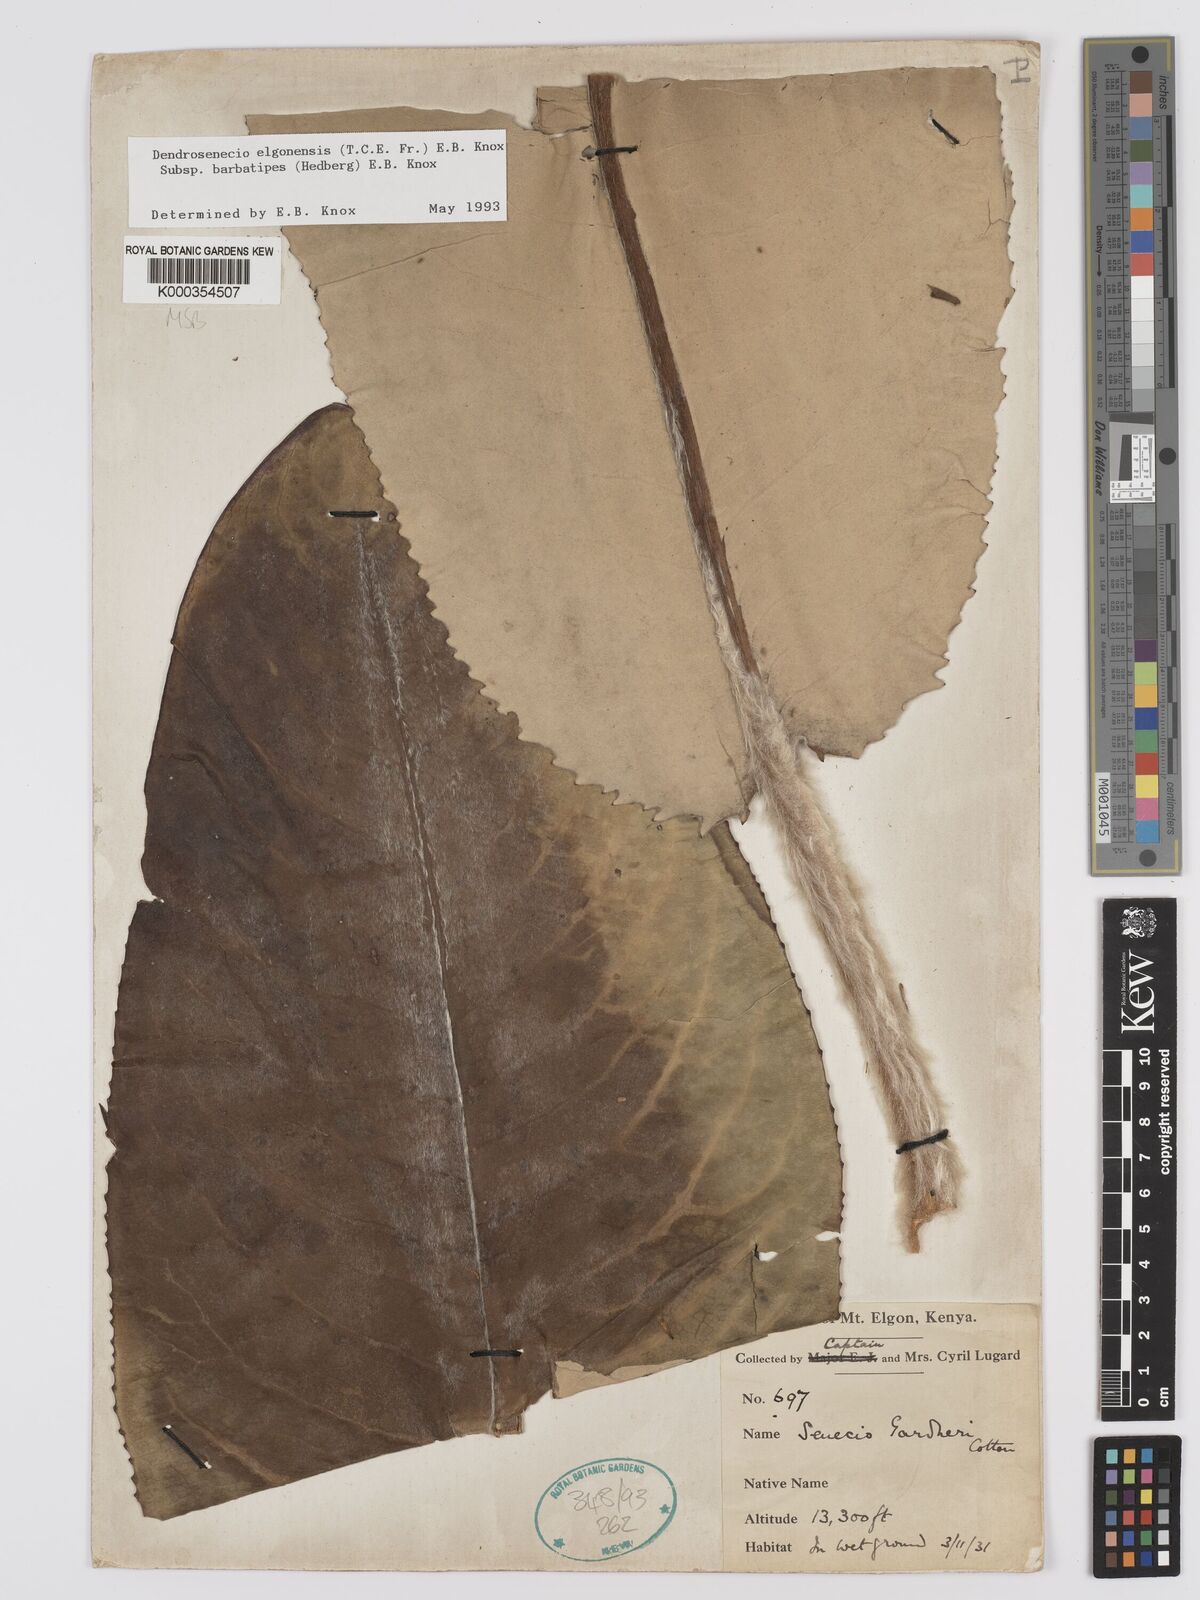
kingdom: Plantae
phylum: Tracheophyta
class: Magnoliopsida
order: Asterales
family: Asteraceae
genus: Dendrosenecio
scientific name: Dendrosenecio elgonensis
